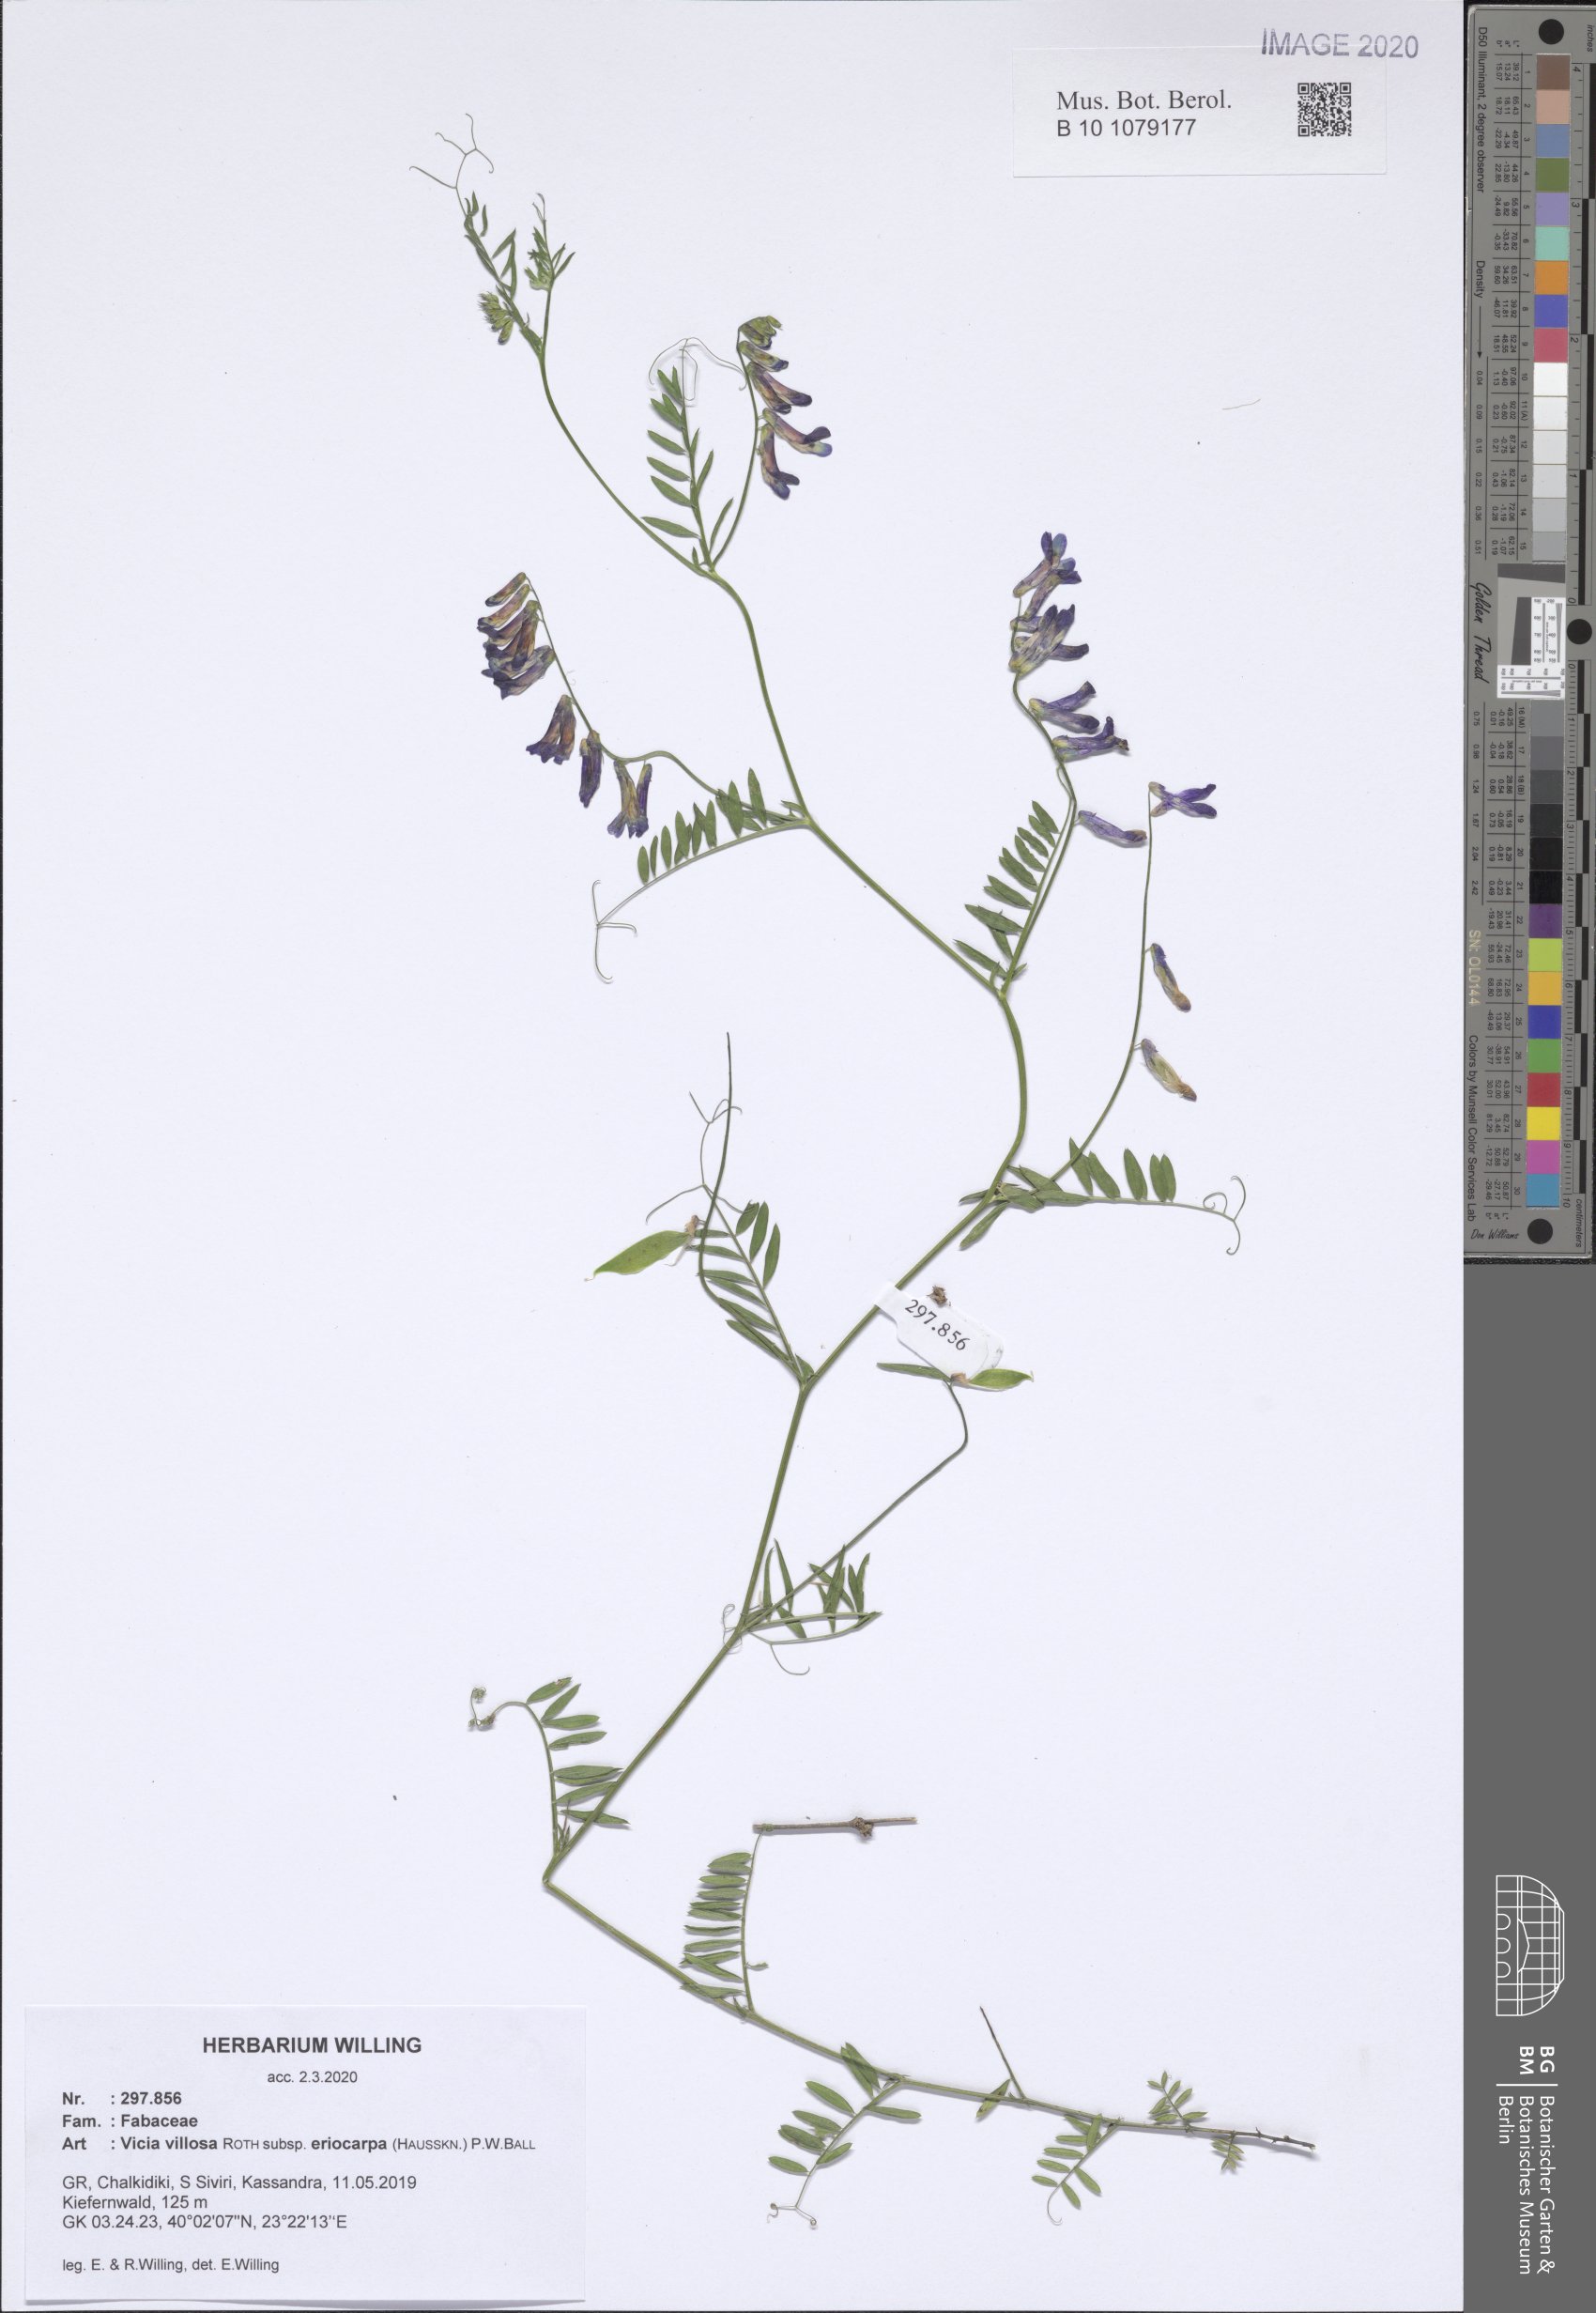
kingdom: Plantae
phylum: Tracheophyta
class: Magnoliopsida
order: Fabales
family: Fabaceae
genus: Vicia
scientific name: Vicia eriocarpa
